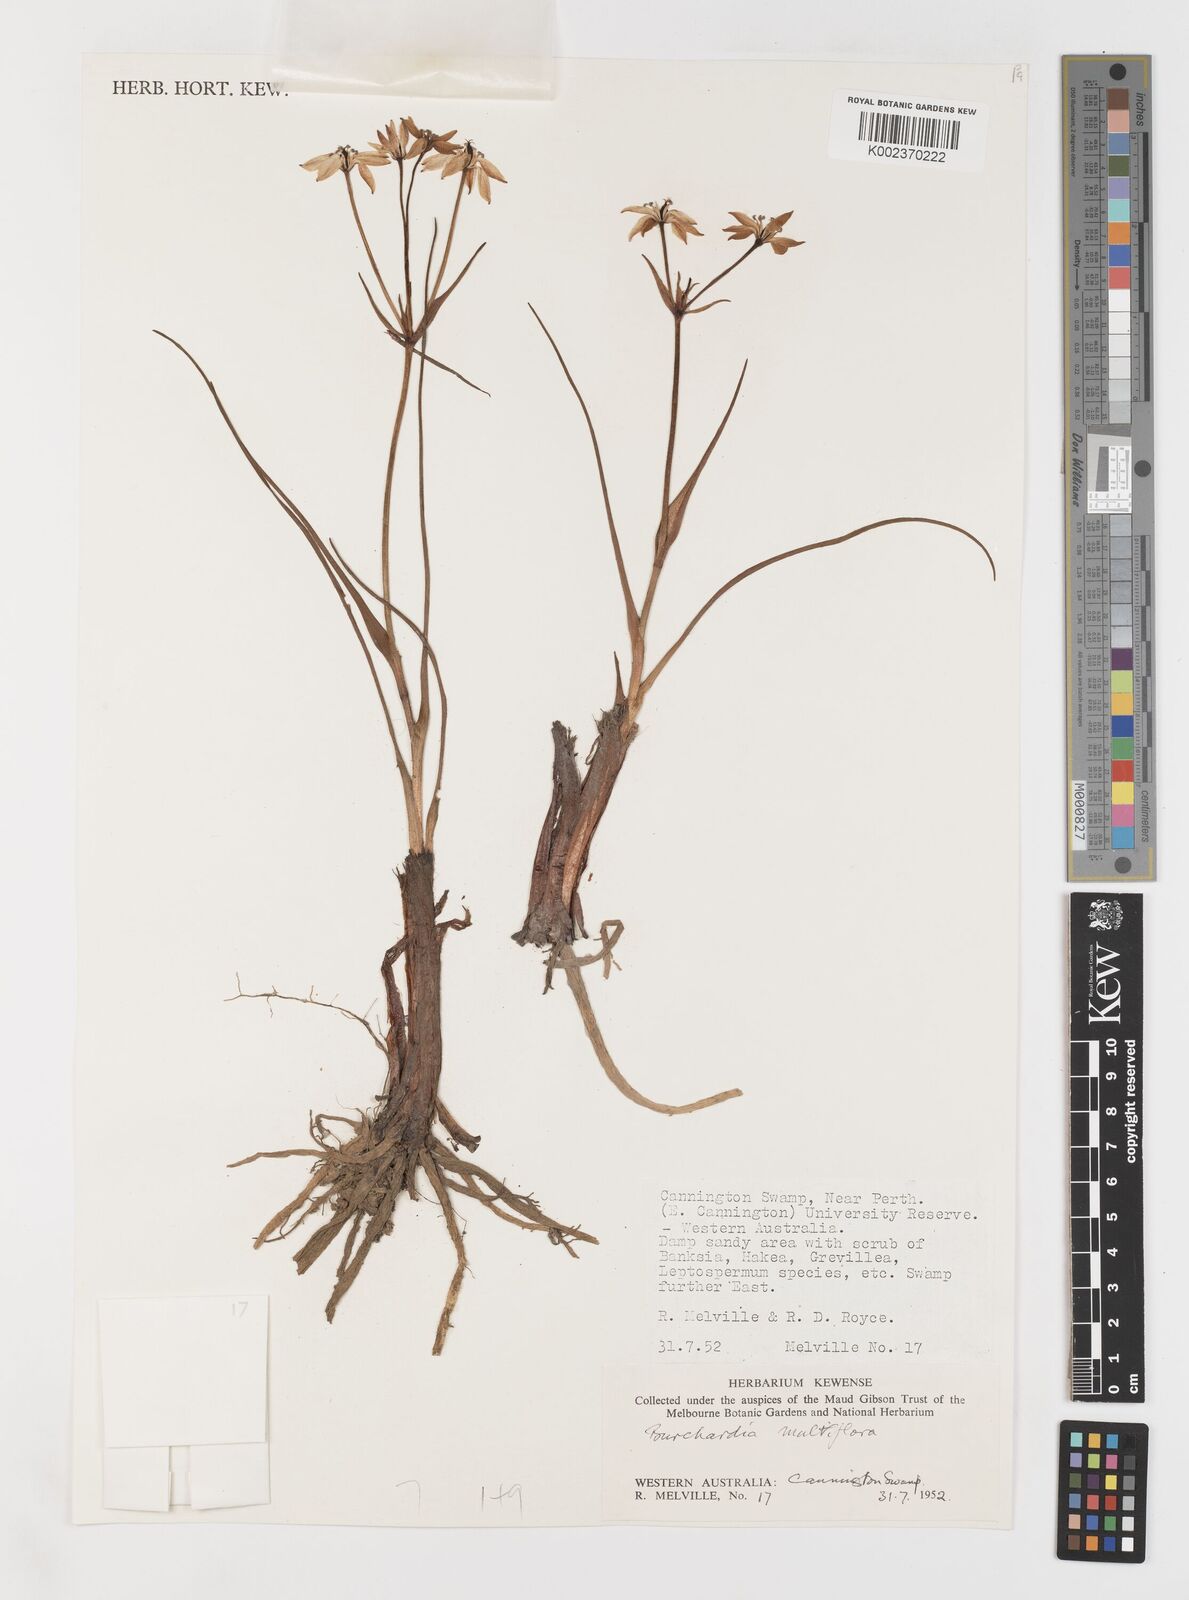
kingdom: Plantae
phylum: Tracheophyta
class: Liliopsida
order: Liliales
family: Colchicaceae
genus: Burchardia
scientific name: Burchardia multiflora
